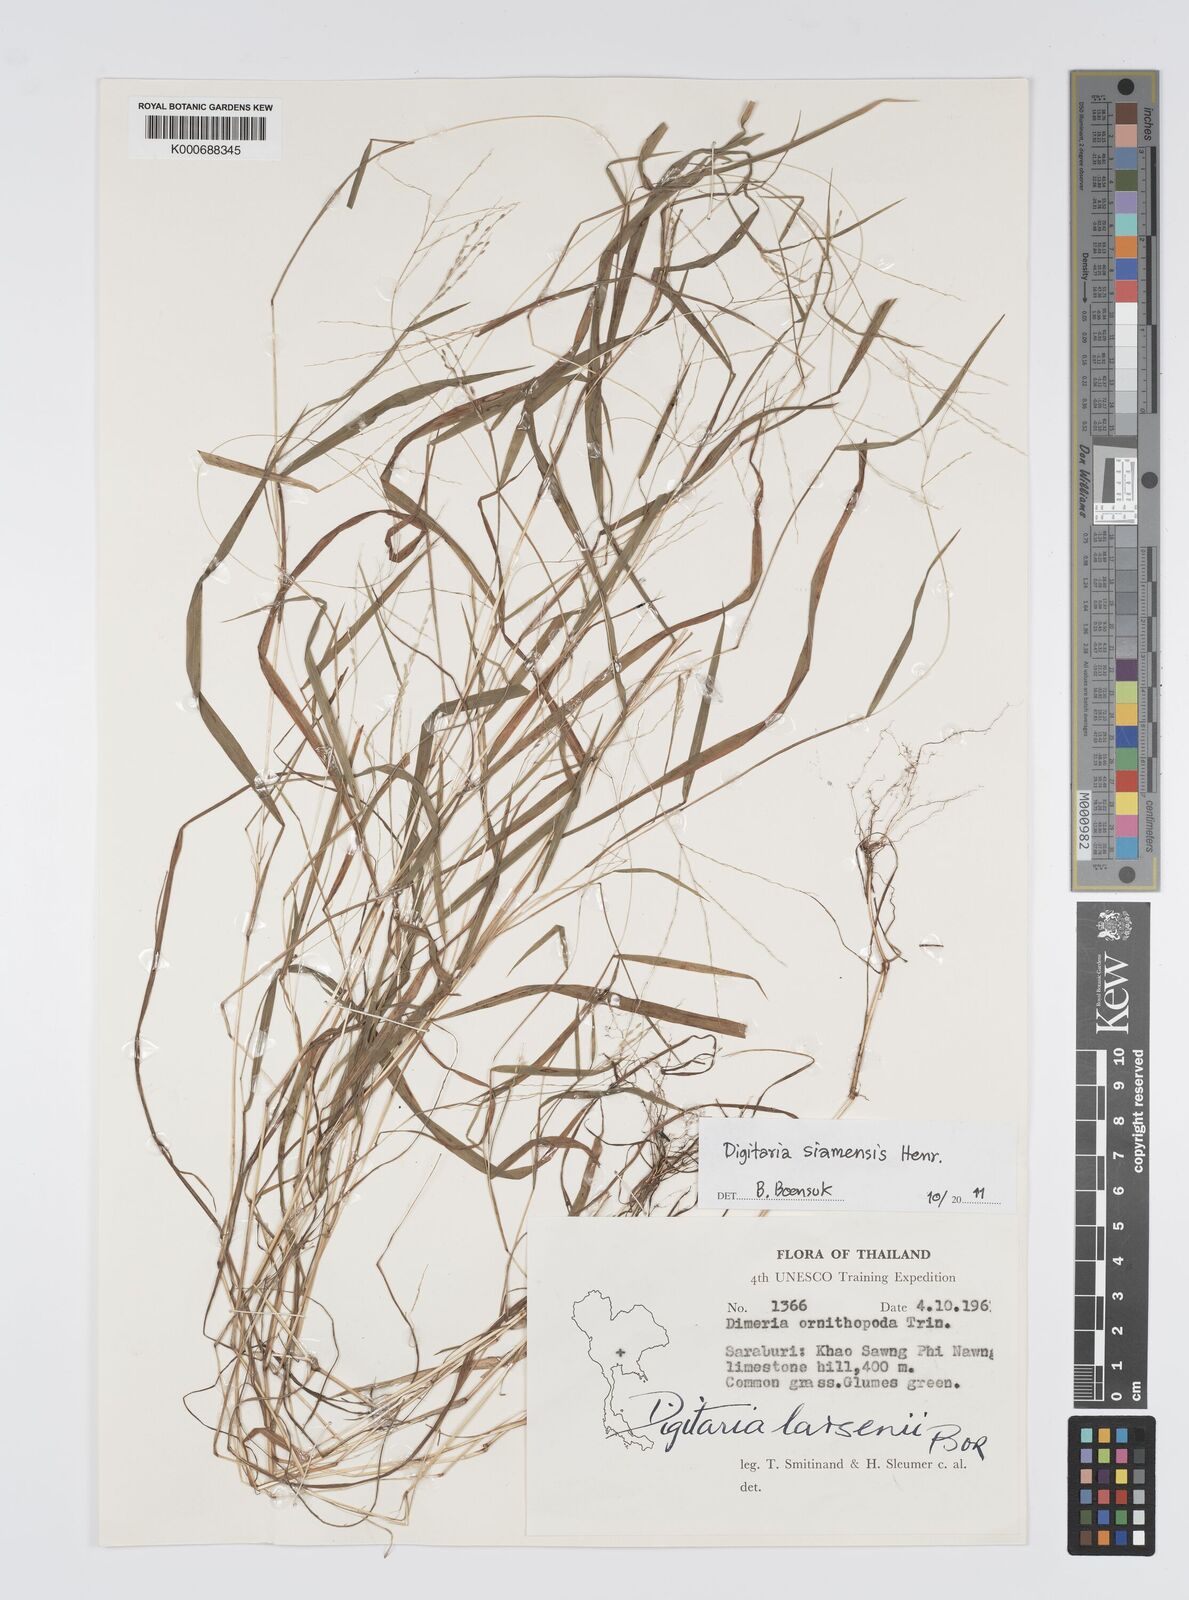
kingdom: Plantae
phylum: Tracheophyta
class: Liliopsida
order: Poales
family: Poaceae
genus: Digitaria
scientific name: Digitaria larsenii
